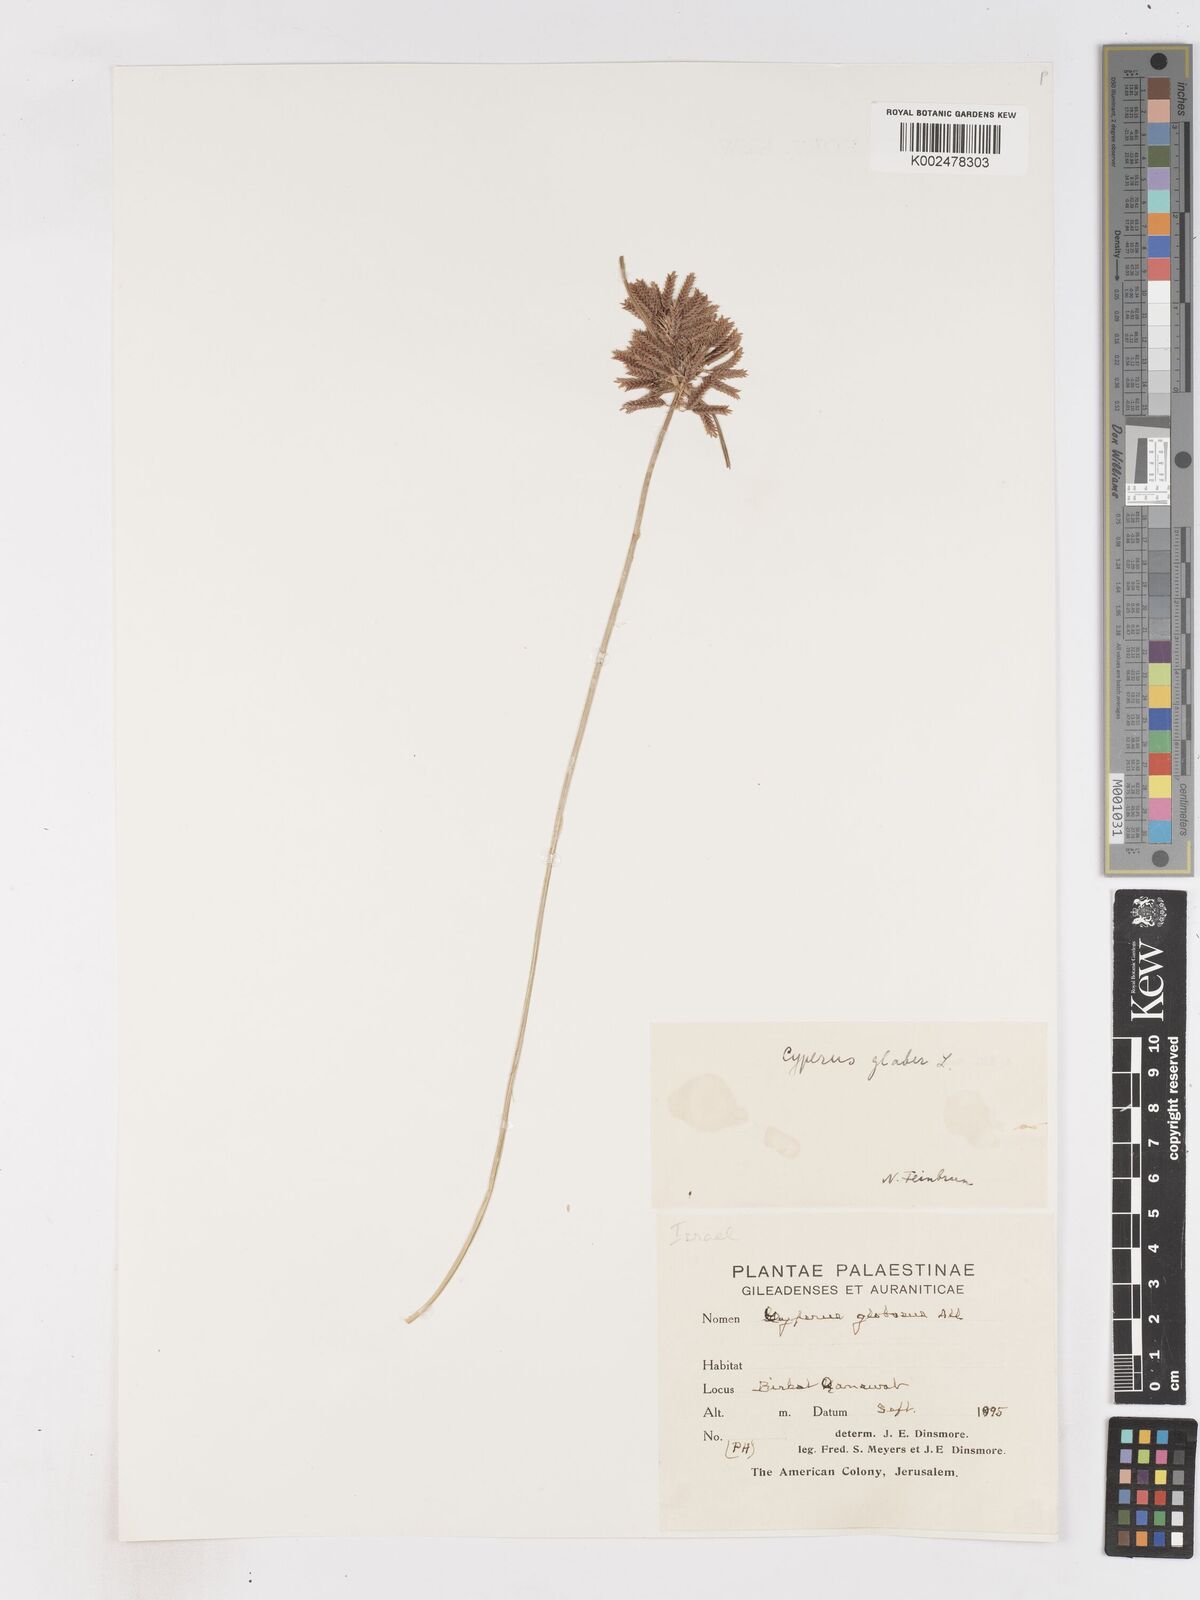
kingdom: Plantae
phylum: Tracheophyta
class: Liliopsida
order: Poales
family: Cyperaceae
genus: Cyperus
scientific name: Cyperus glaber
